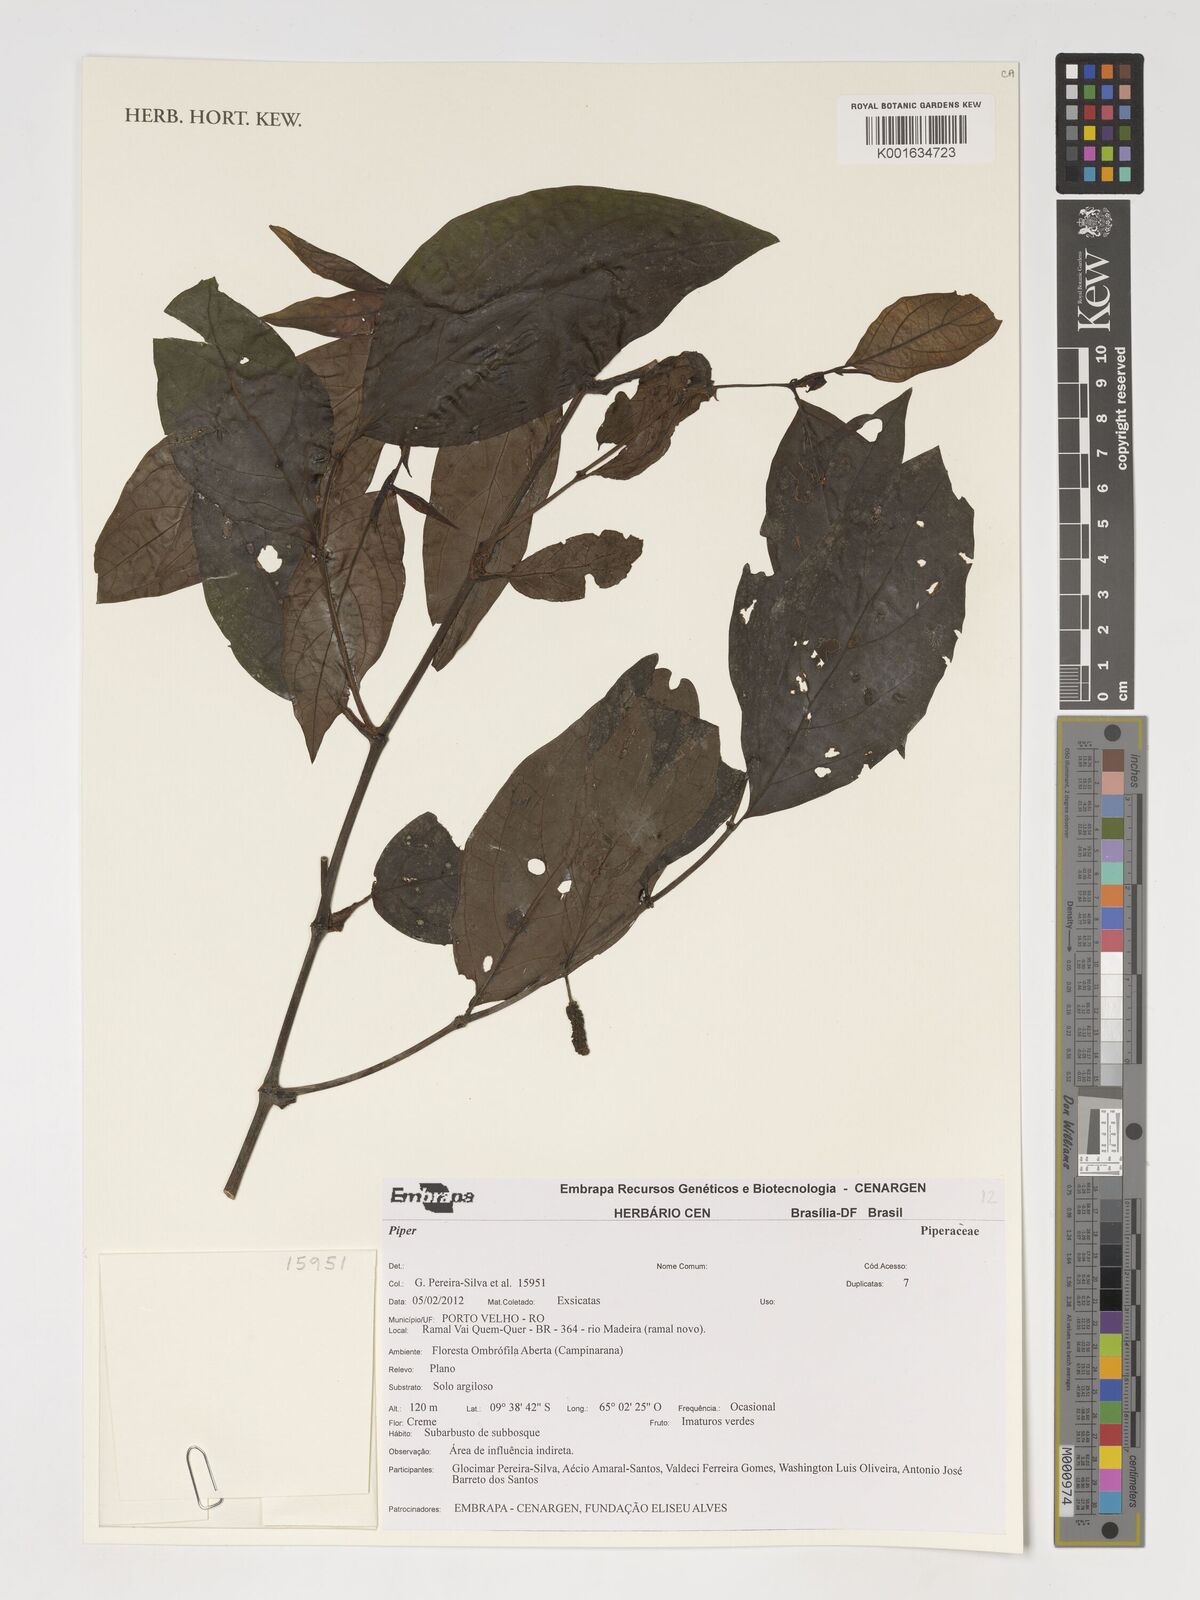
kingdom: Plantae
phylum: Tracheophyta
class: Magnoliopsida
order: Piperales
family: Piperaceae
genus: Piper
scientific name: Piper
